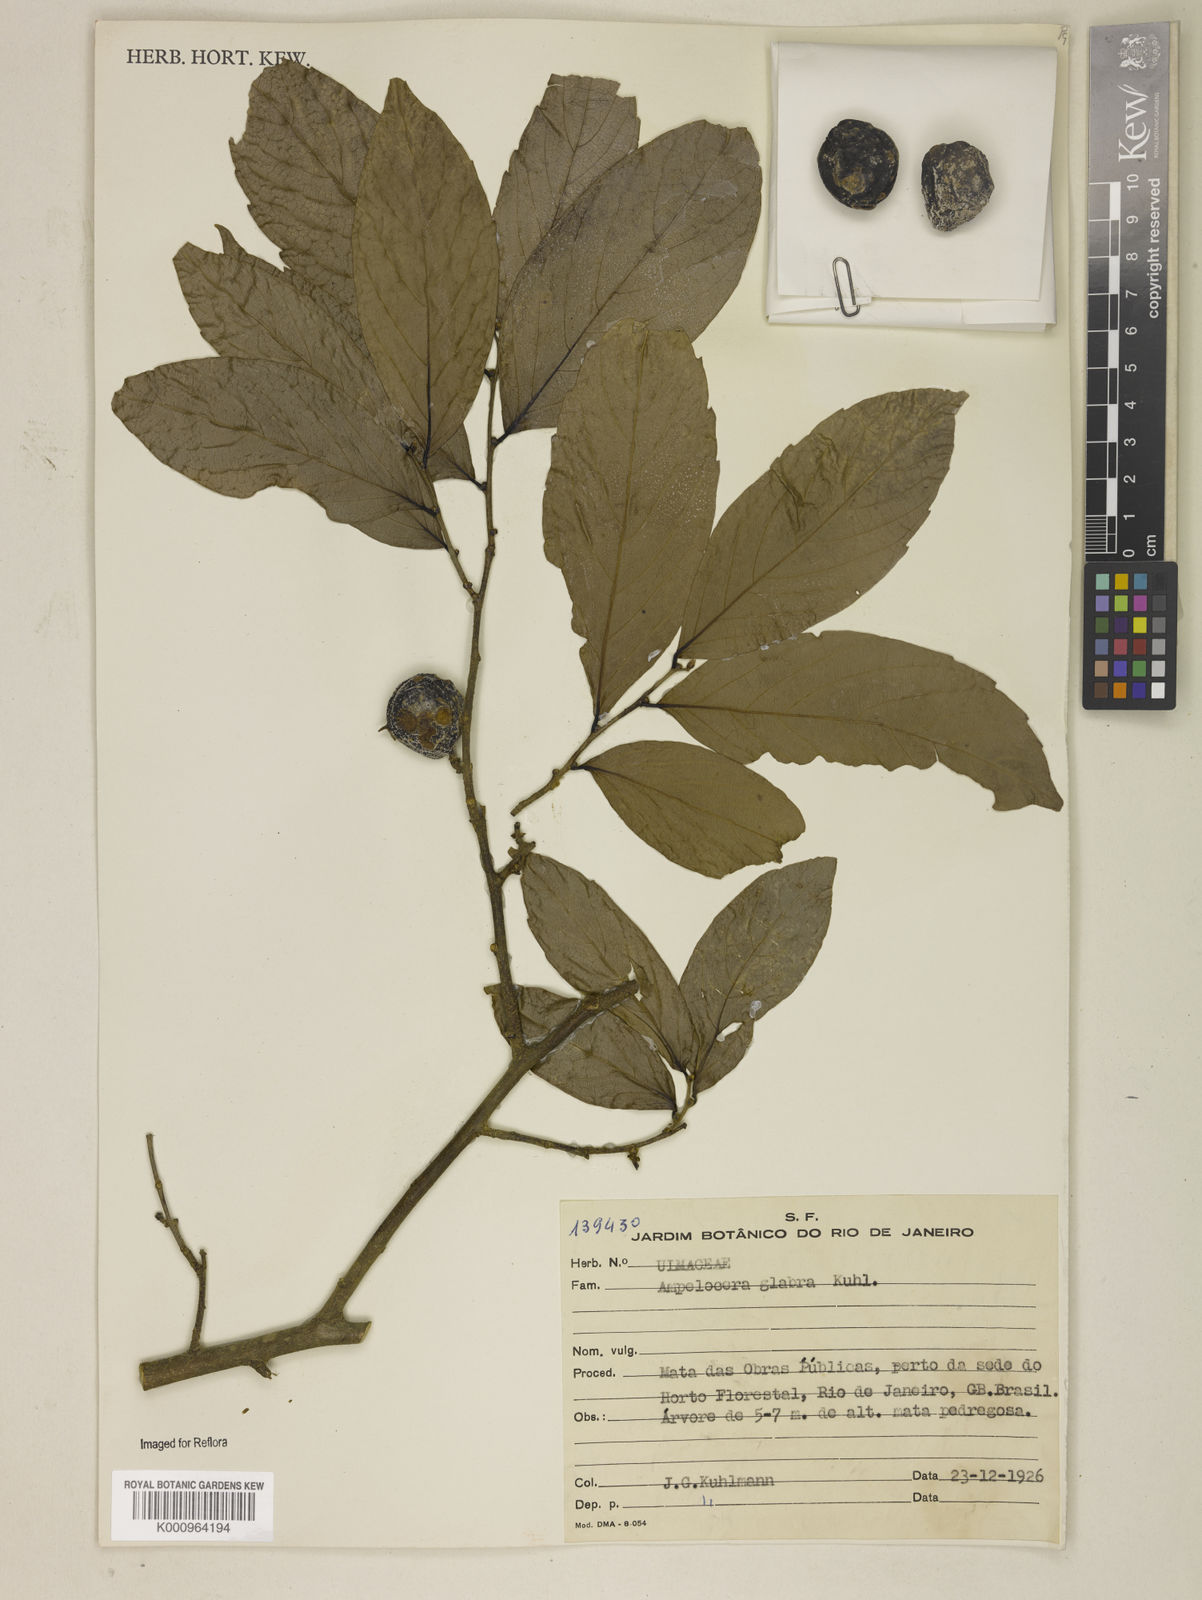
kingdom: Plantae
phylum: Tracheophyta
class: Magnoliopsida
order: Rosales
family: Cannabaceae
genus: Ampelocera
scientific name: Ampelocera glabra
